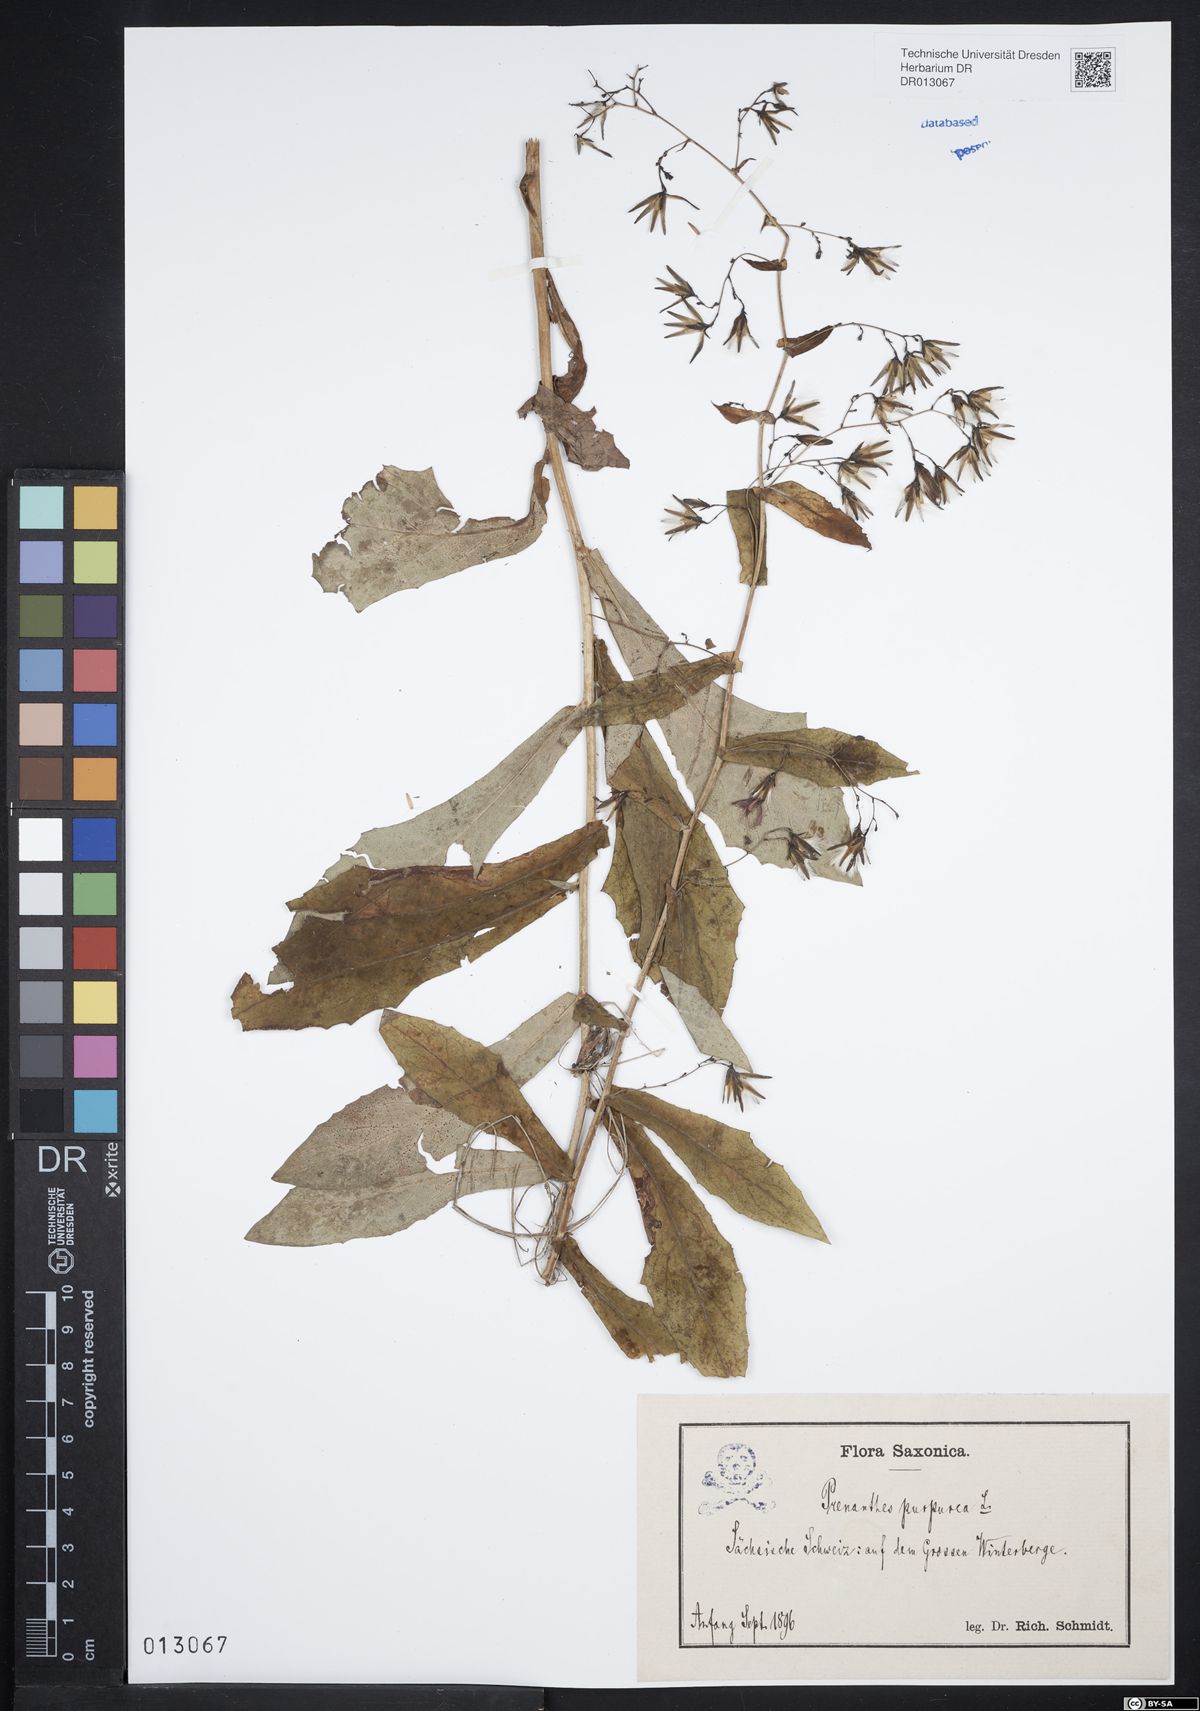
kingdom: Plantae
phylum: Tracheophyta
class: Magnoliopsida
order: Asterales
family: Asteraceae
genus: Prenanthes
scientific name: Prenanthes purpurea
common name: Purple lettuce
